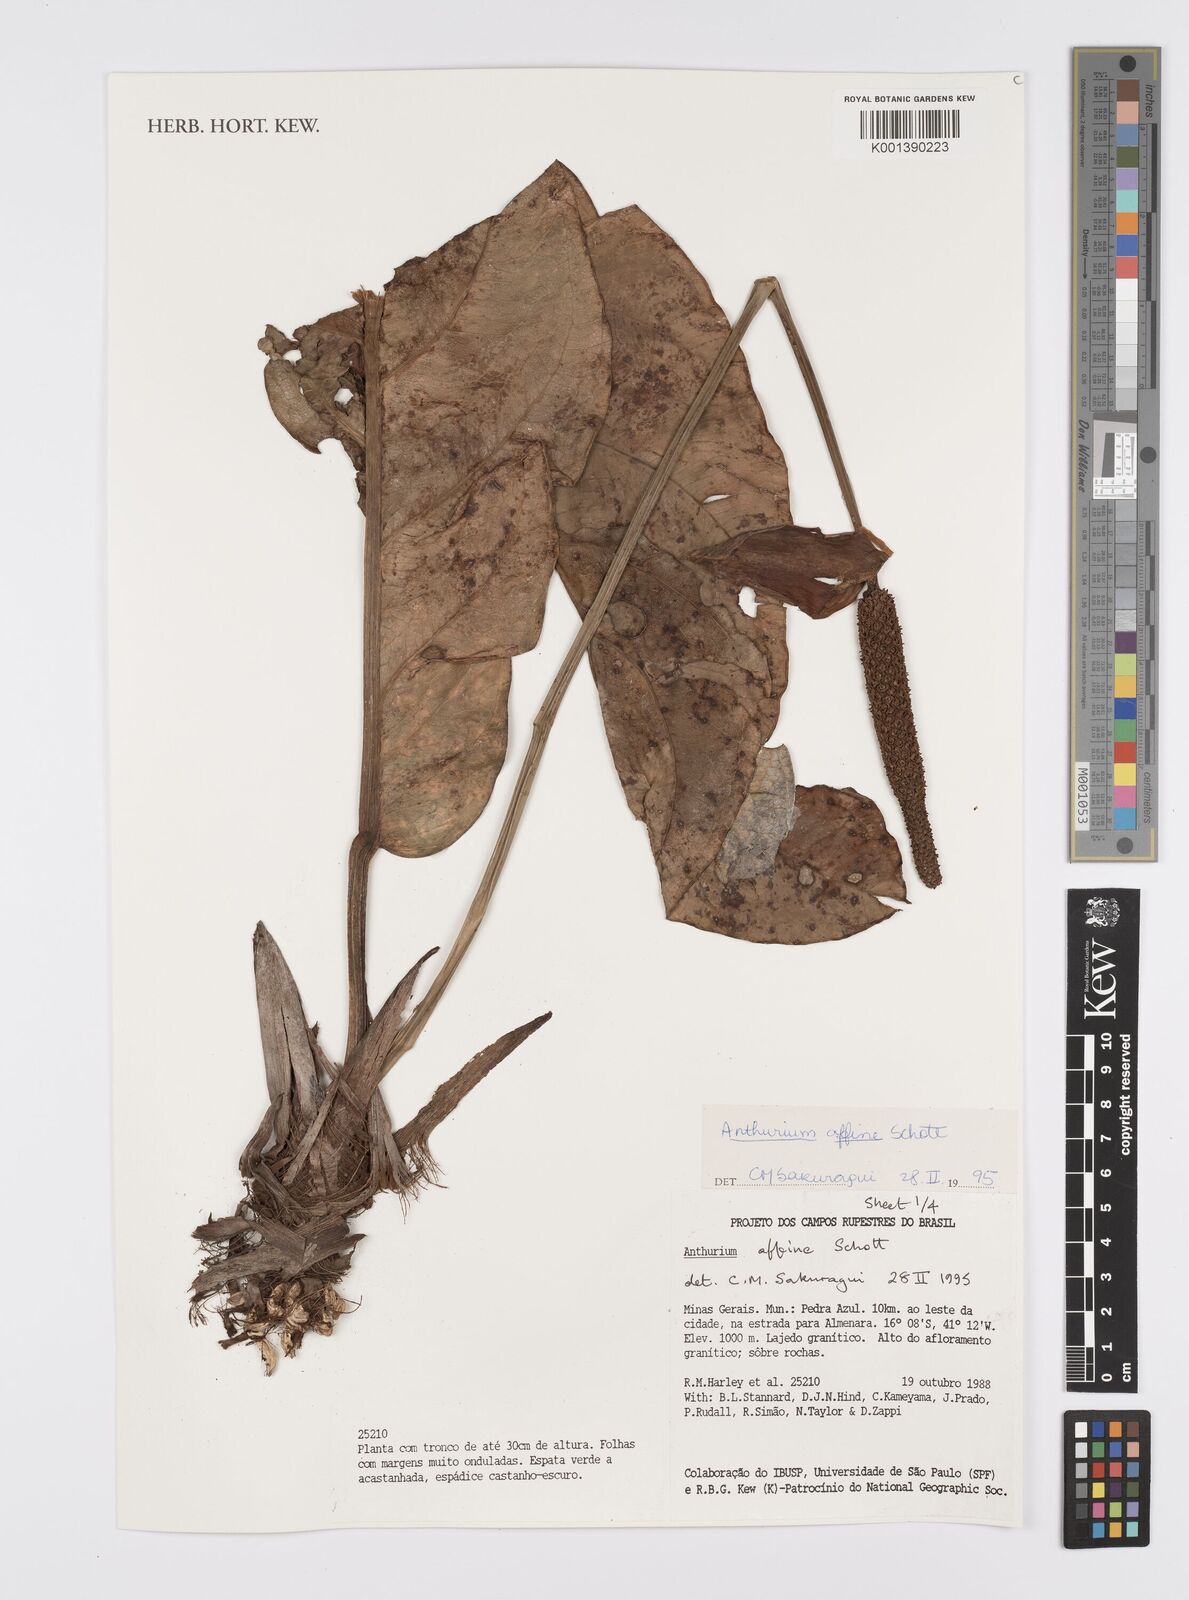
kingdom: Plantae
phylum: Tracheophyta
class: Liliopsida
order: Alismatales
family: Araceae
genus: Anthurium
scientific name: Anthurium affine
